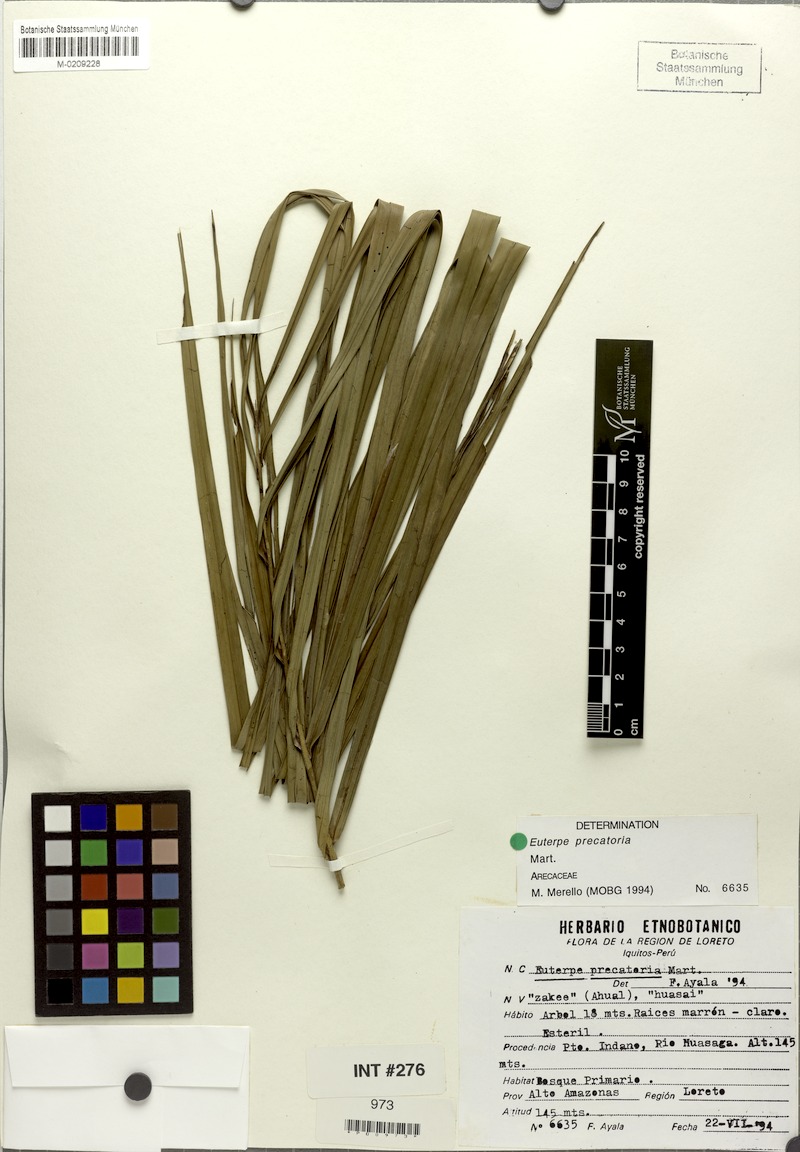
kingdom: Plantae
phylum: Tracheophyta
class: Liliopsida
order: Arecales
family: Arecaceae
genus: Euterpe
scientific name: Euterpe precatoria
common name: Mountain-cabbage
